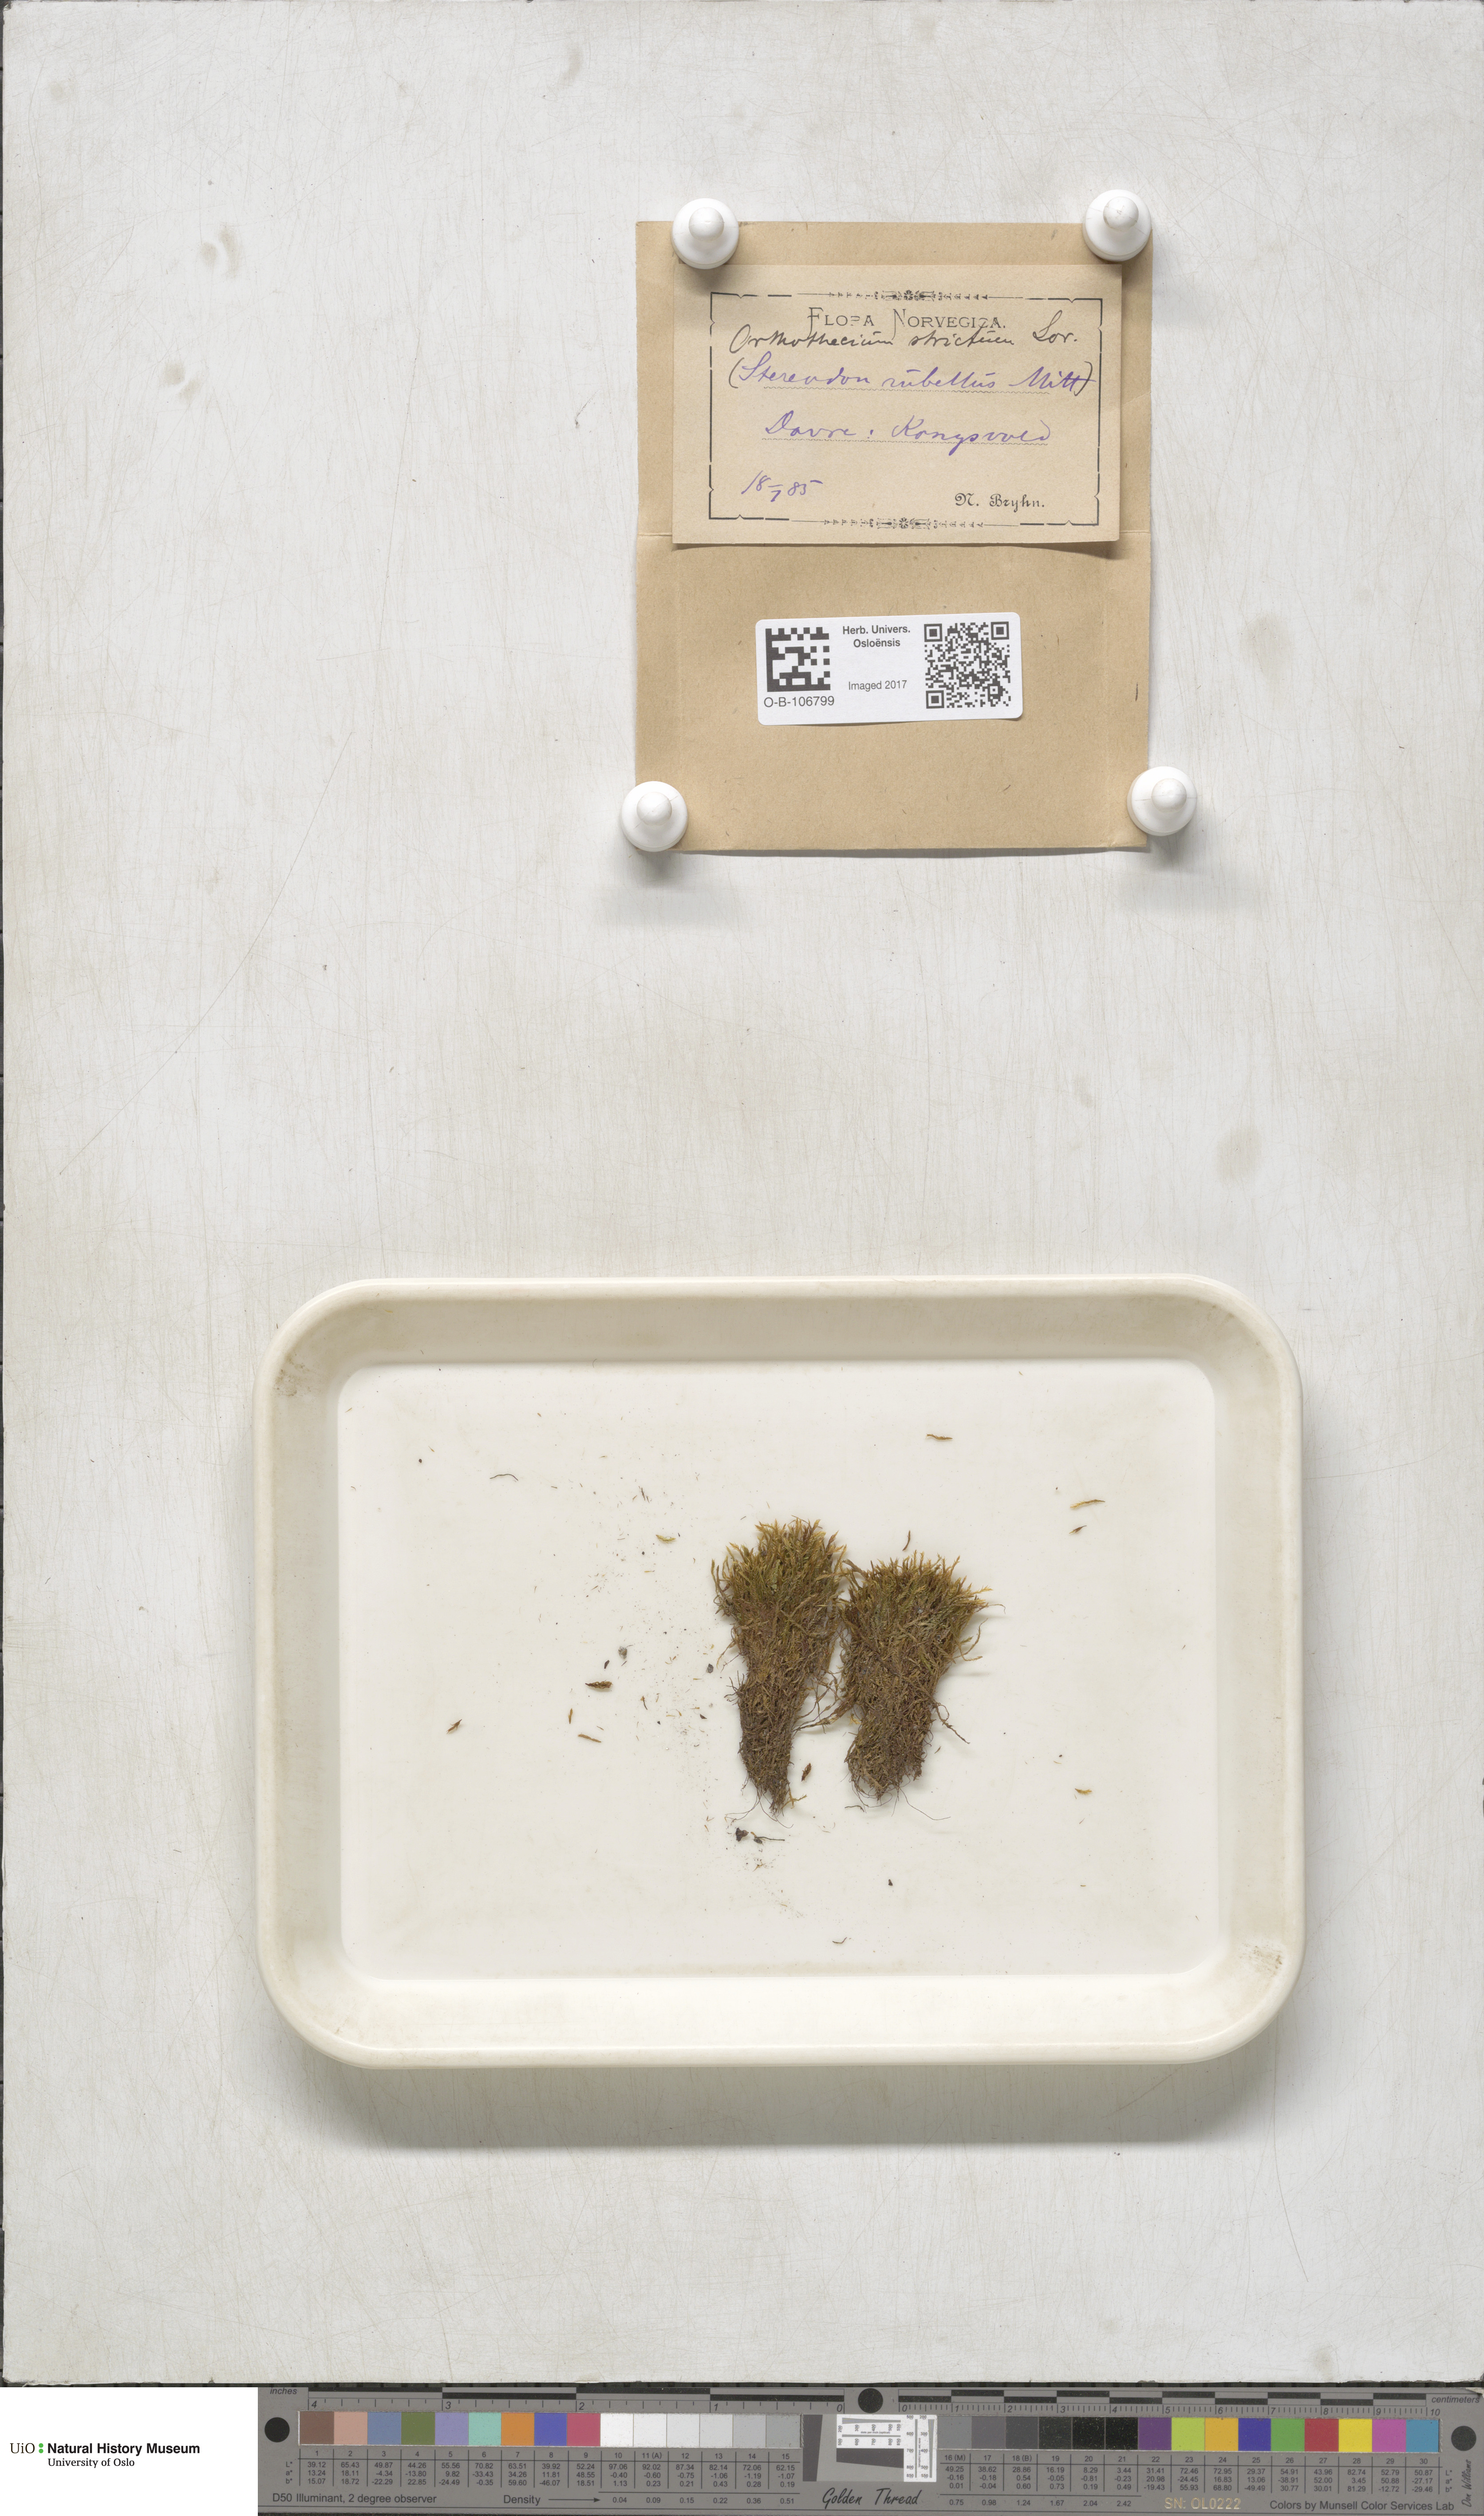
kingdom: Plantae
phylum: Bryophyta
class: Bryopsida
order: Hypnales
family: Plagiotheciaceae
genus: Orthothecium
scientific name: Orthothecium strictum
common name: Shiny erect-capsule moss
